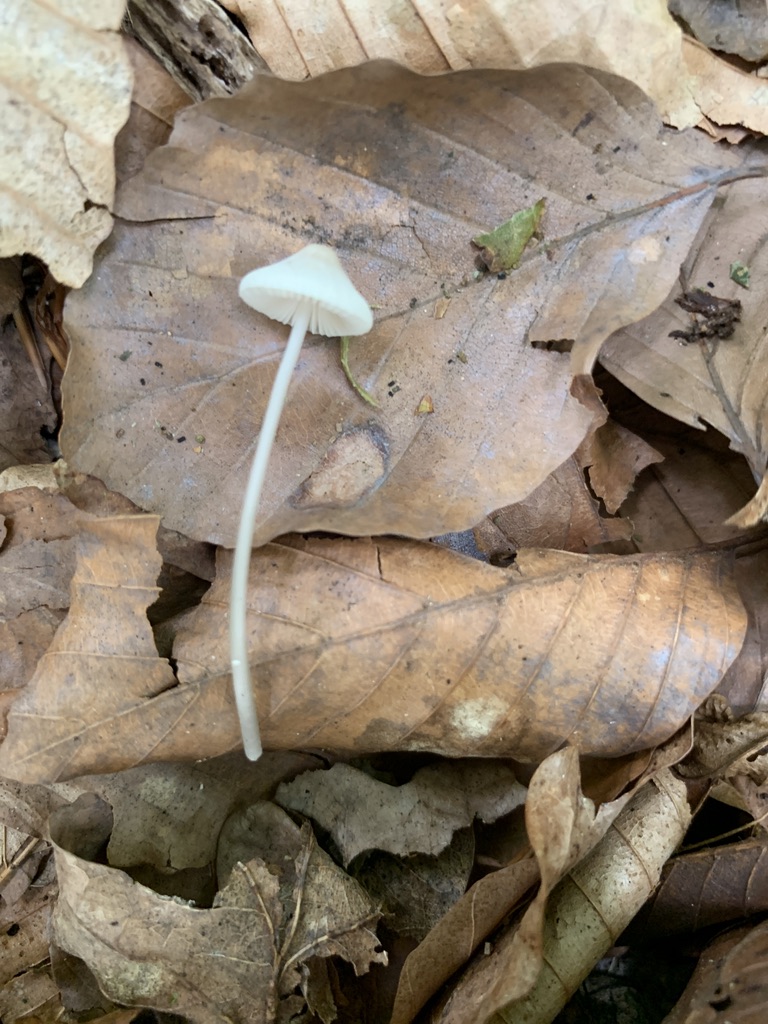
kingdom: Fungi
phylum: Basidiomycota
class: Agaricomycetes
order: Agaricales
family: Mycenaceae
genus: Mycena
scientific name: Mycena vitilis
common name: blankstokket huesvamp
